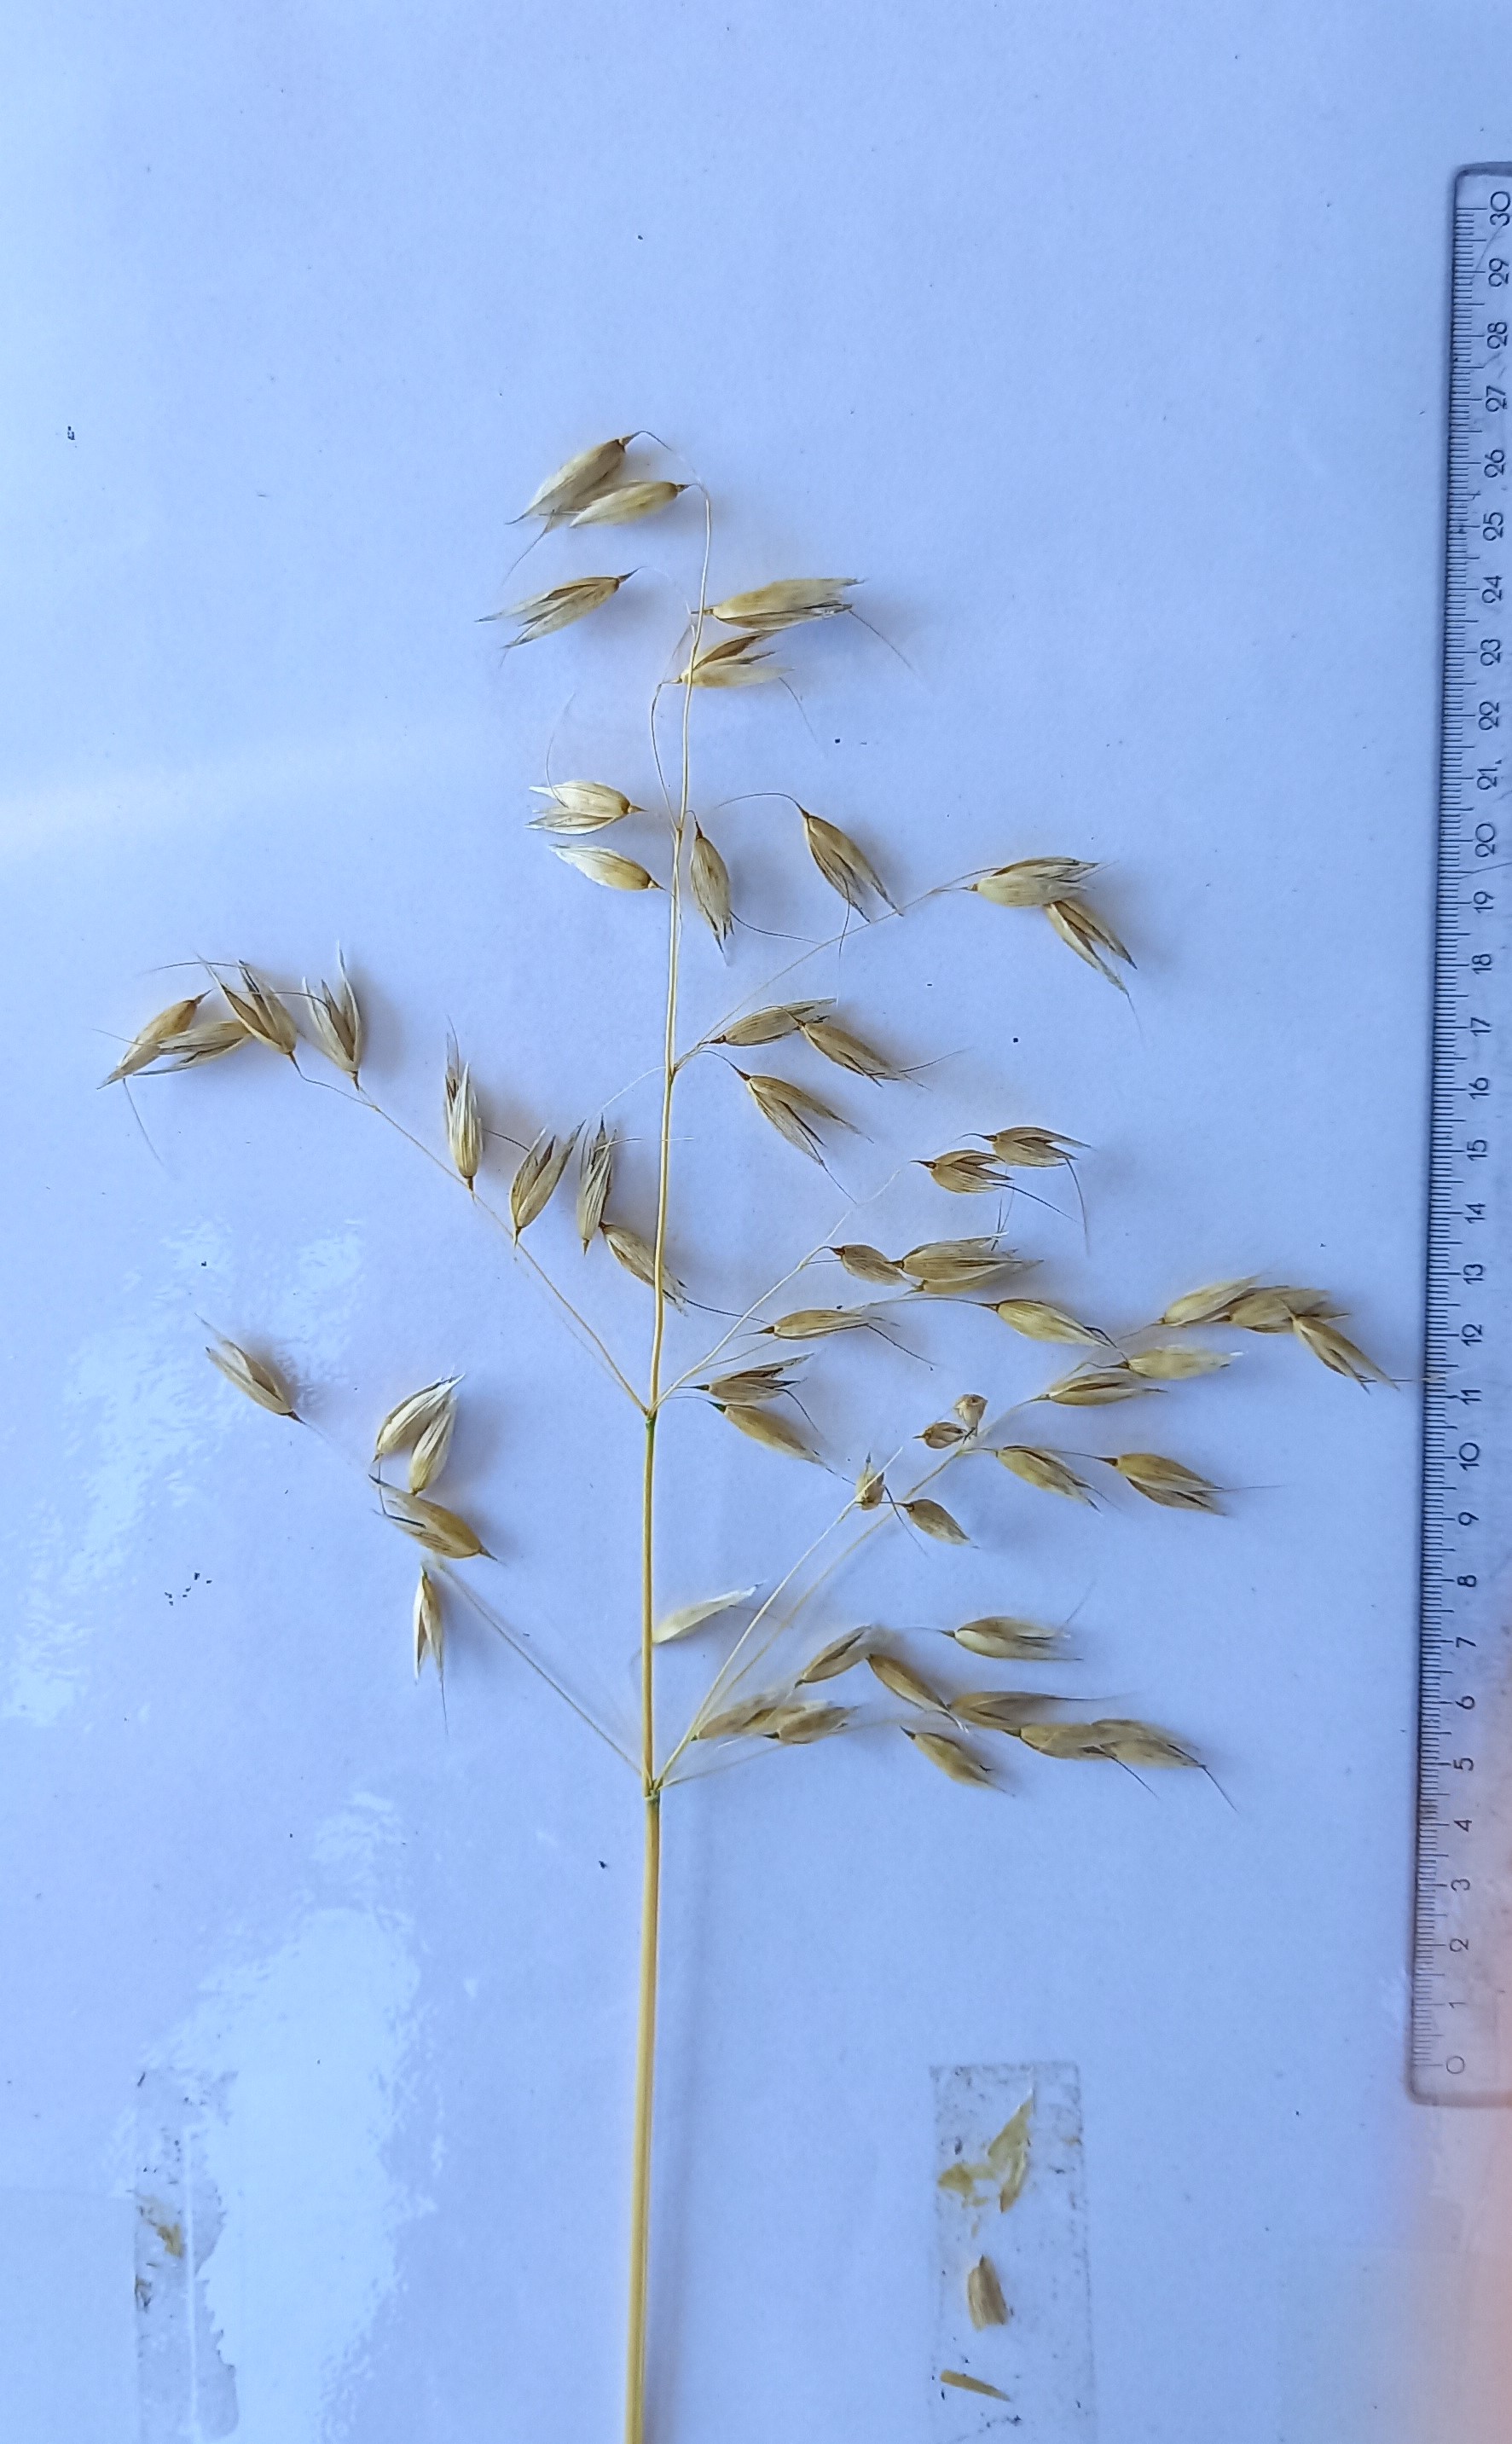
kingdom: Plantae
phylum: Tracheophyta
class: Liliopsida
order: Poales
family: Poaceae
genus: Avena
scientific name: Avena sativa
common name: Oat
